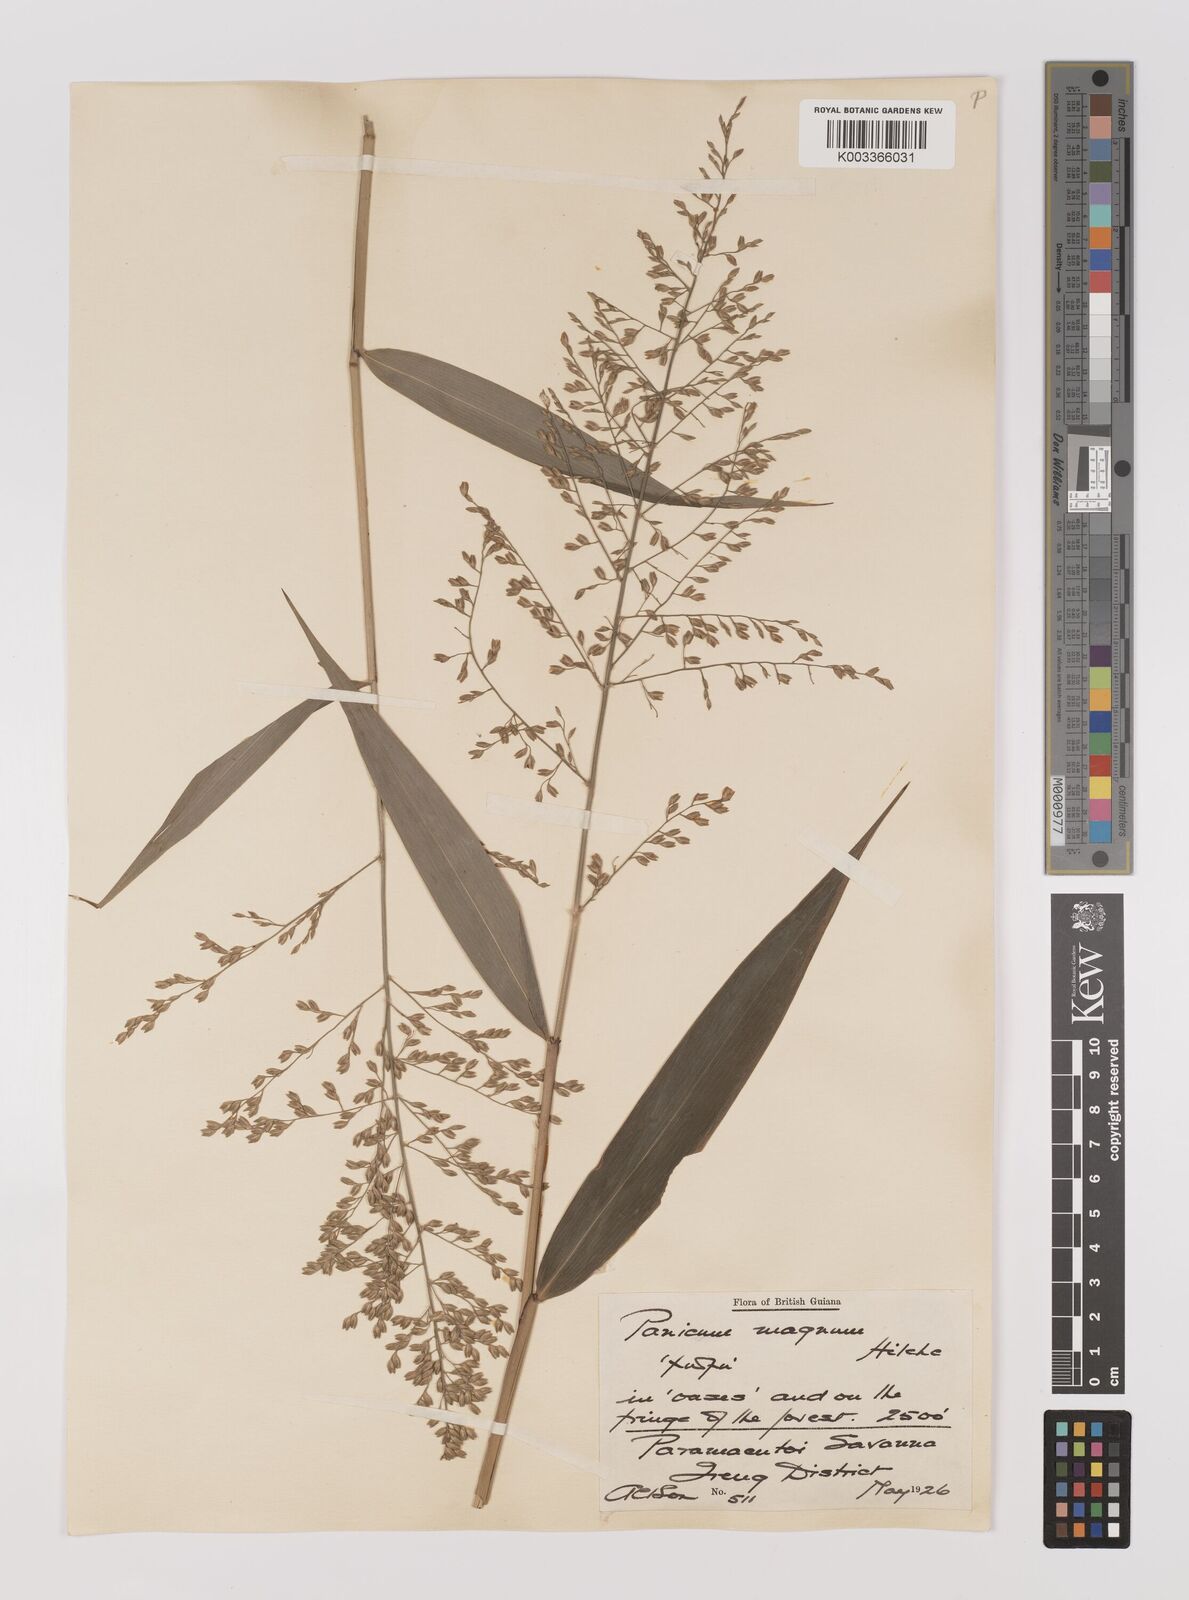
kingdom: Plantae
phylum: Tracheophyta
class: Liliopsida
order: Poales
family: Poaceae
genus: Ichnanthus
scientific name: Ichnanthus breviscrobs
